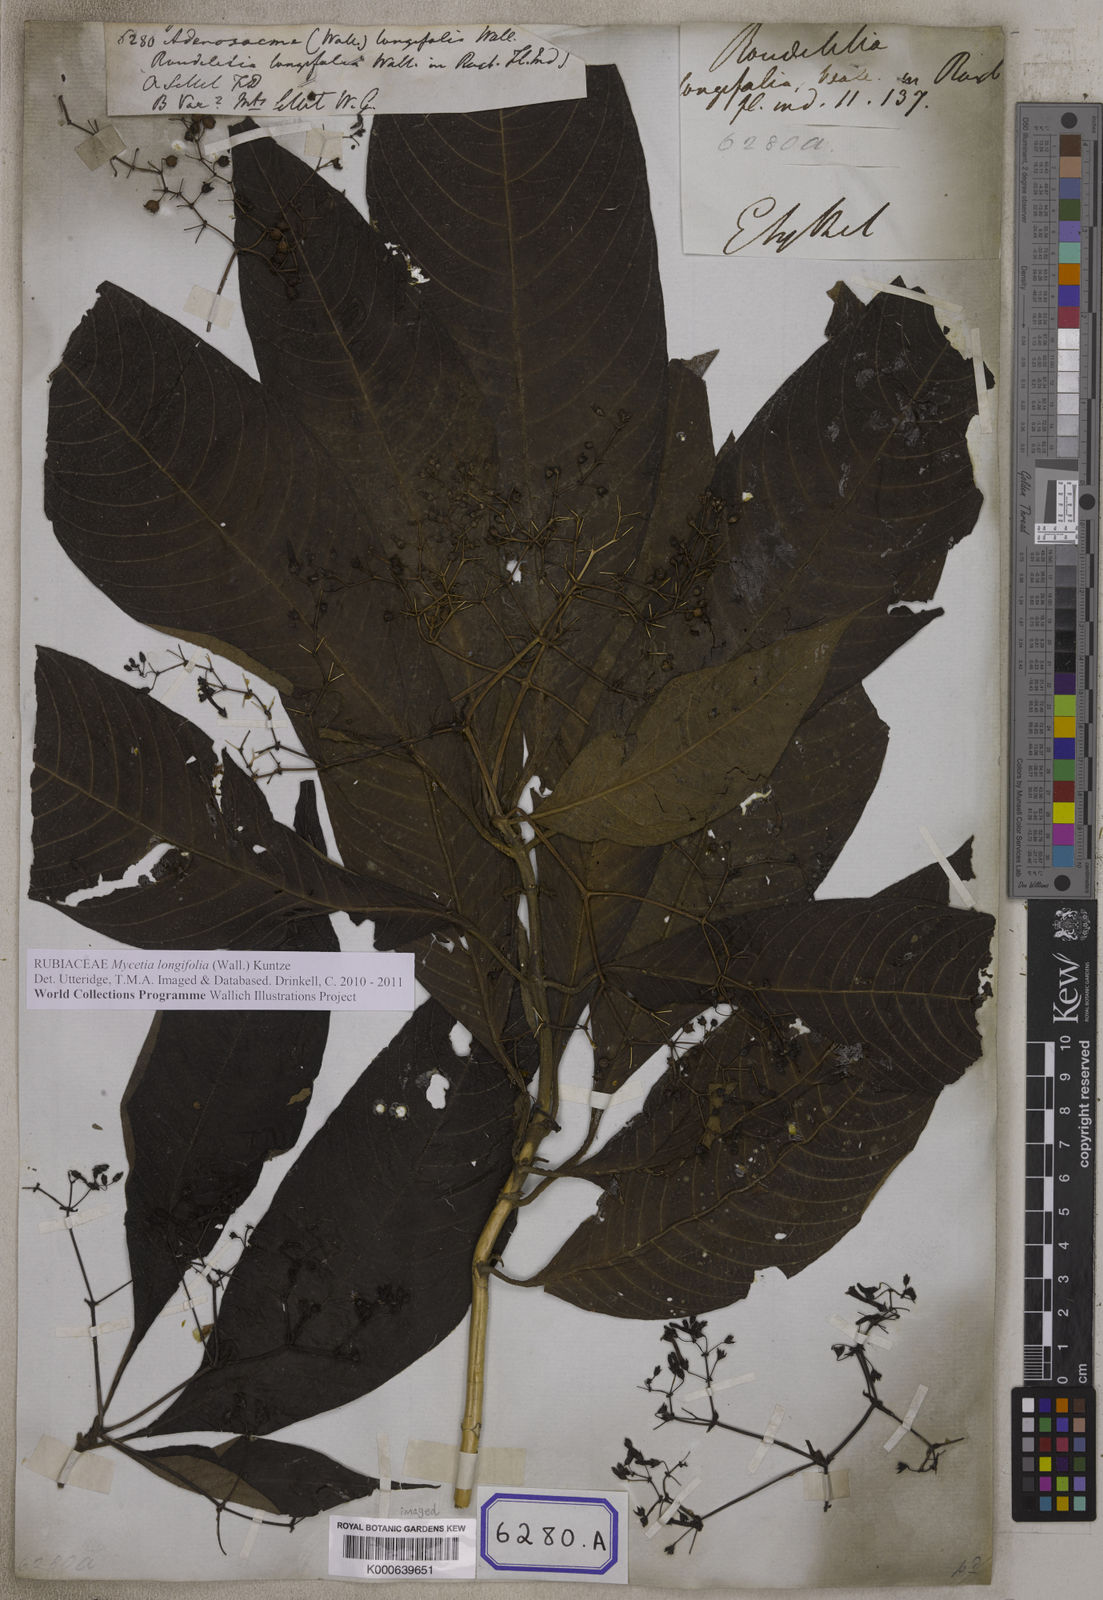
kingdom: Plantae
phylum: Tracheophyta
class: Magnoliopsida
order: Gentianales
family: Rubiaceae
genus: Adenosacme
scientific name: Adenosacme
